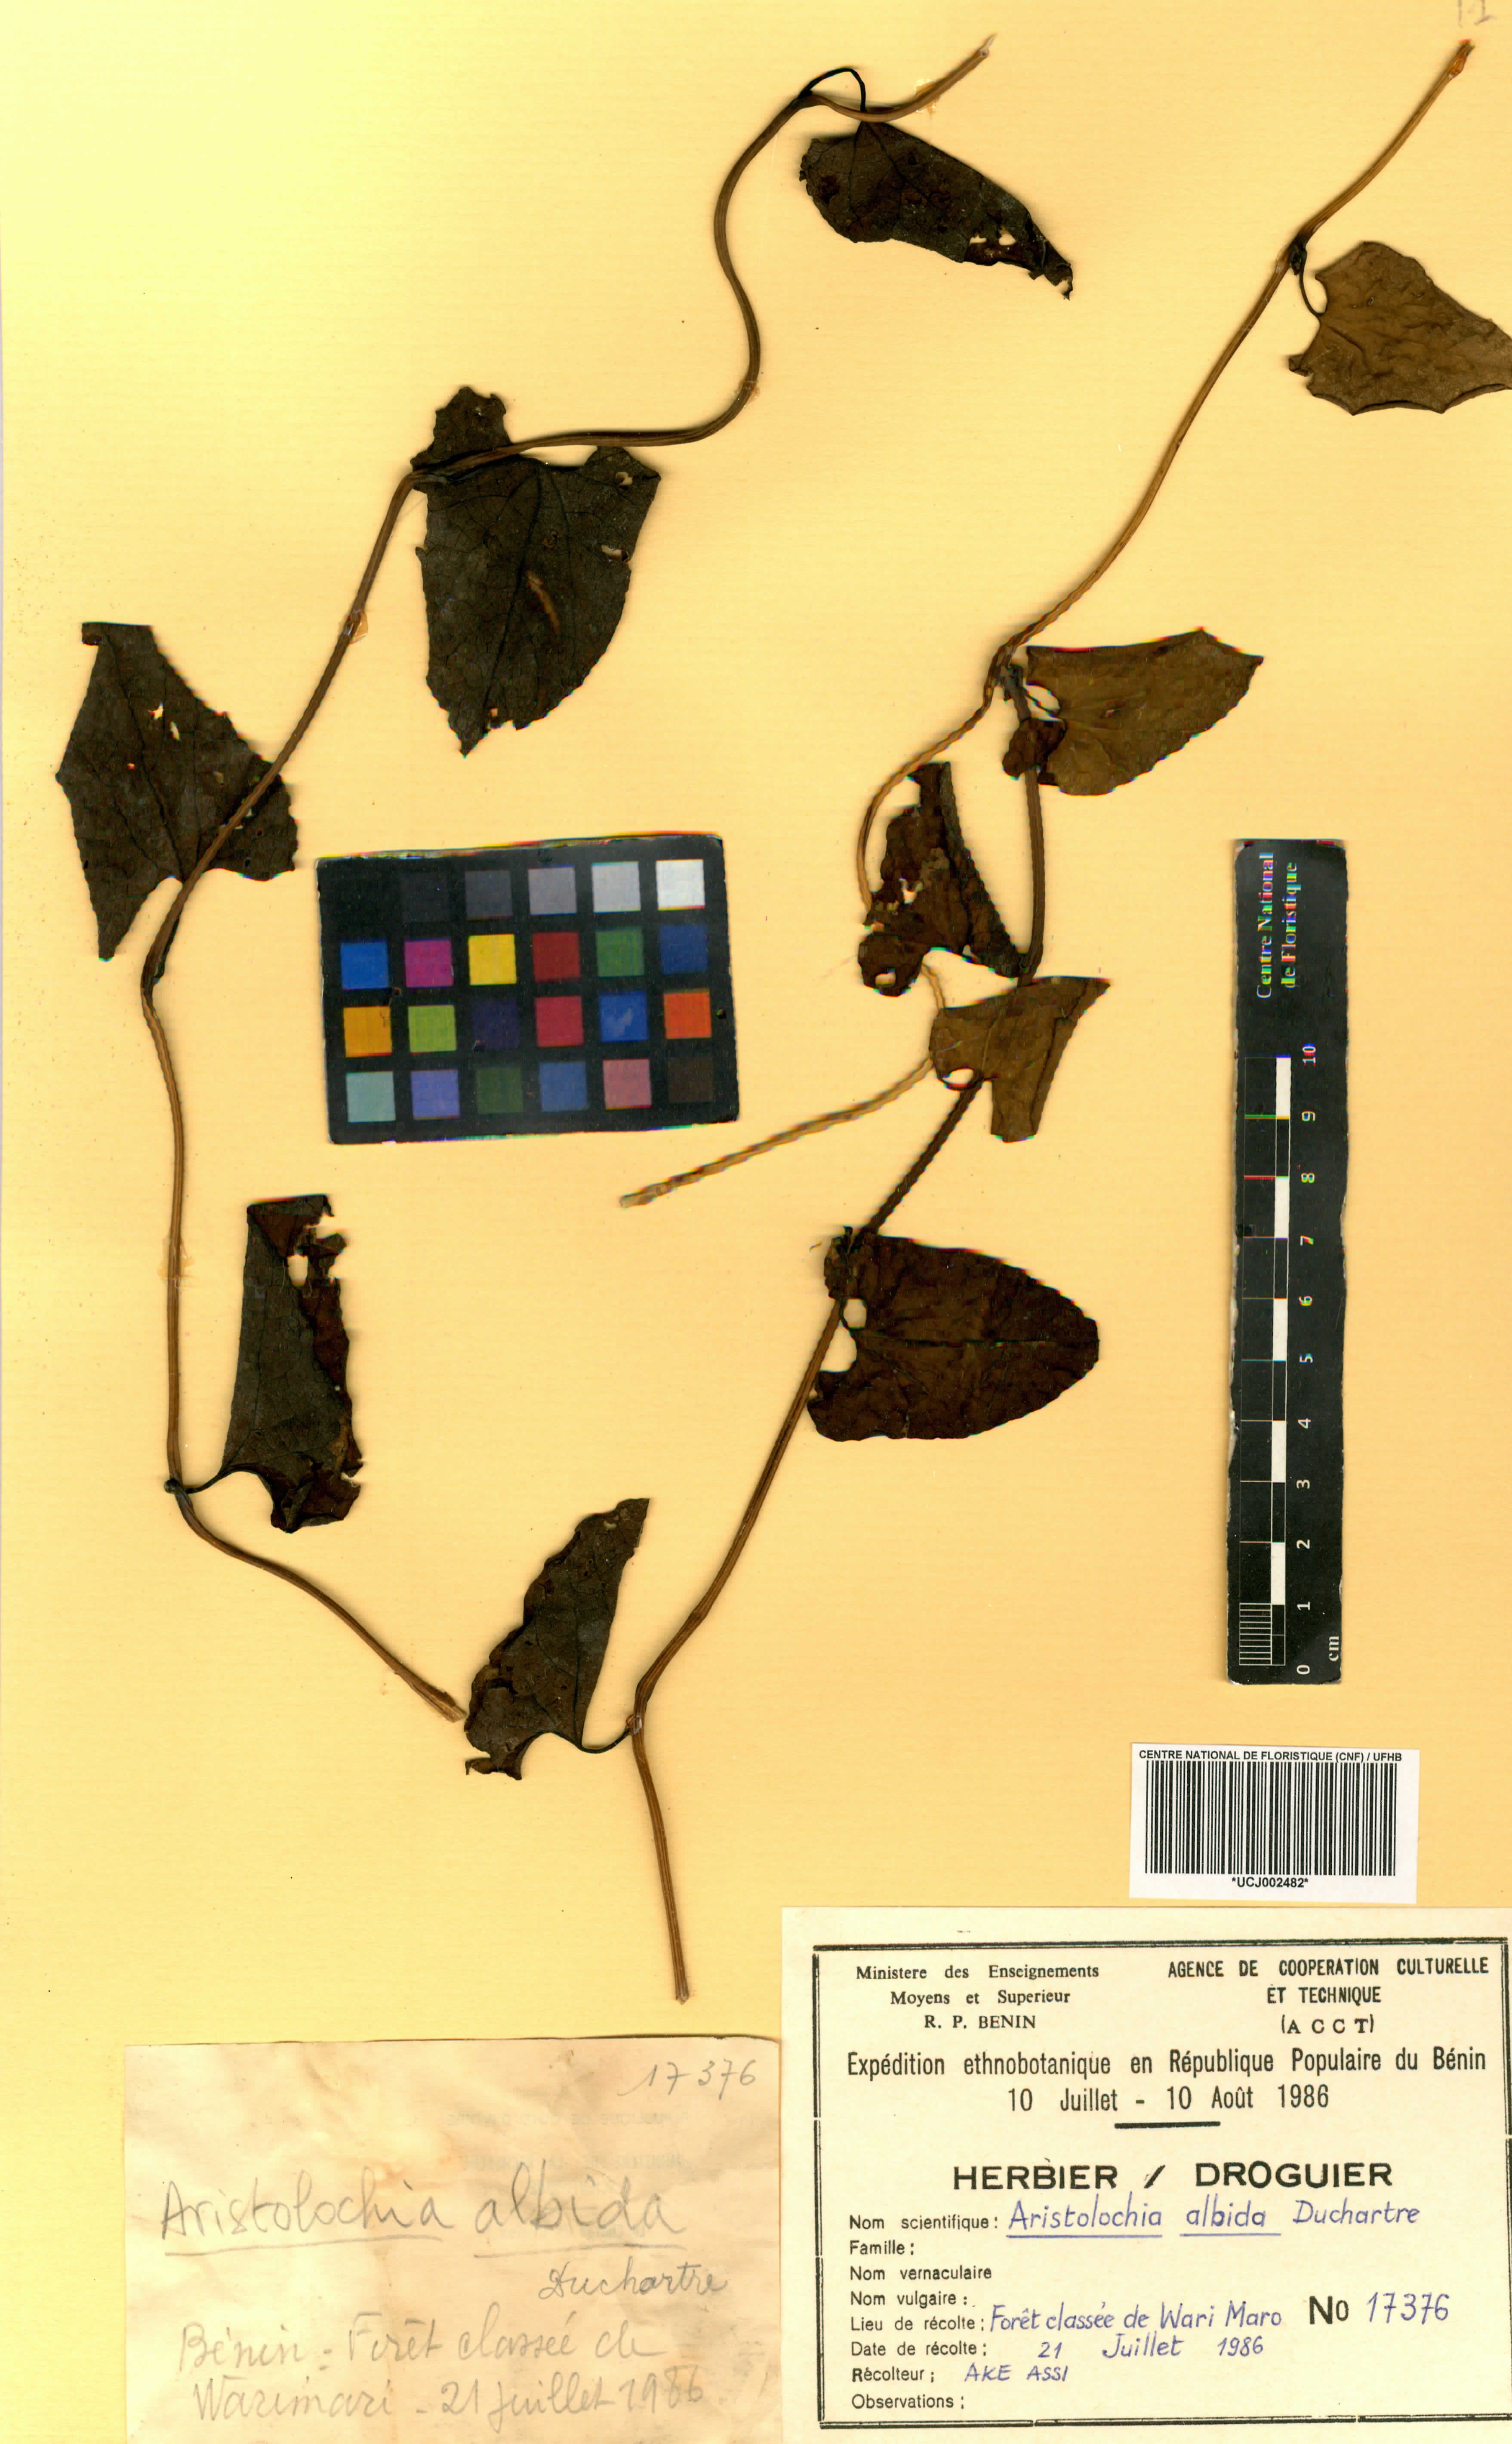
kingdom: Plantae
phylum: Tracheophyta
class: Magnoliopsida
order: Piperales
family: Aristolochiaceae
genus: Aristolochia
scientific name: Aristolochia albida
